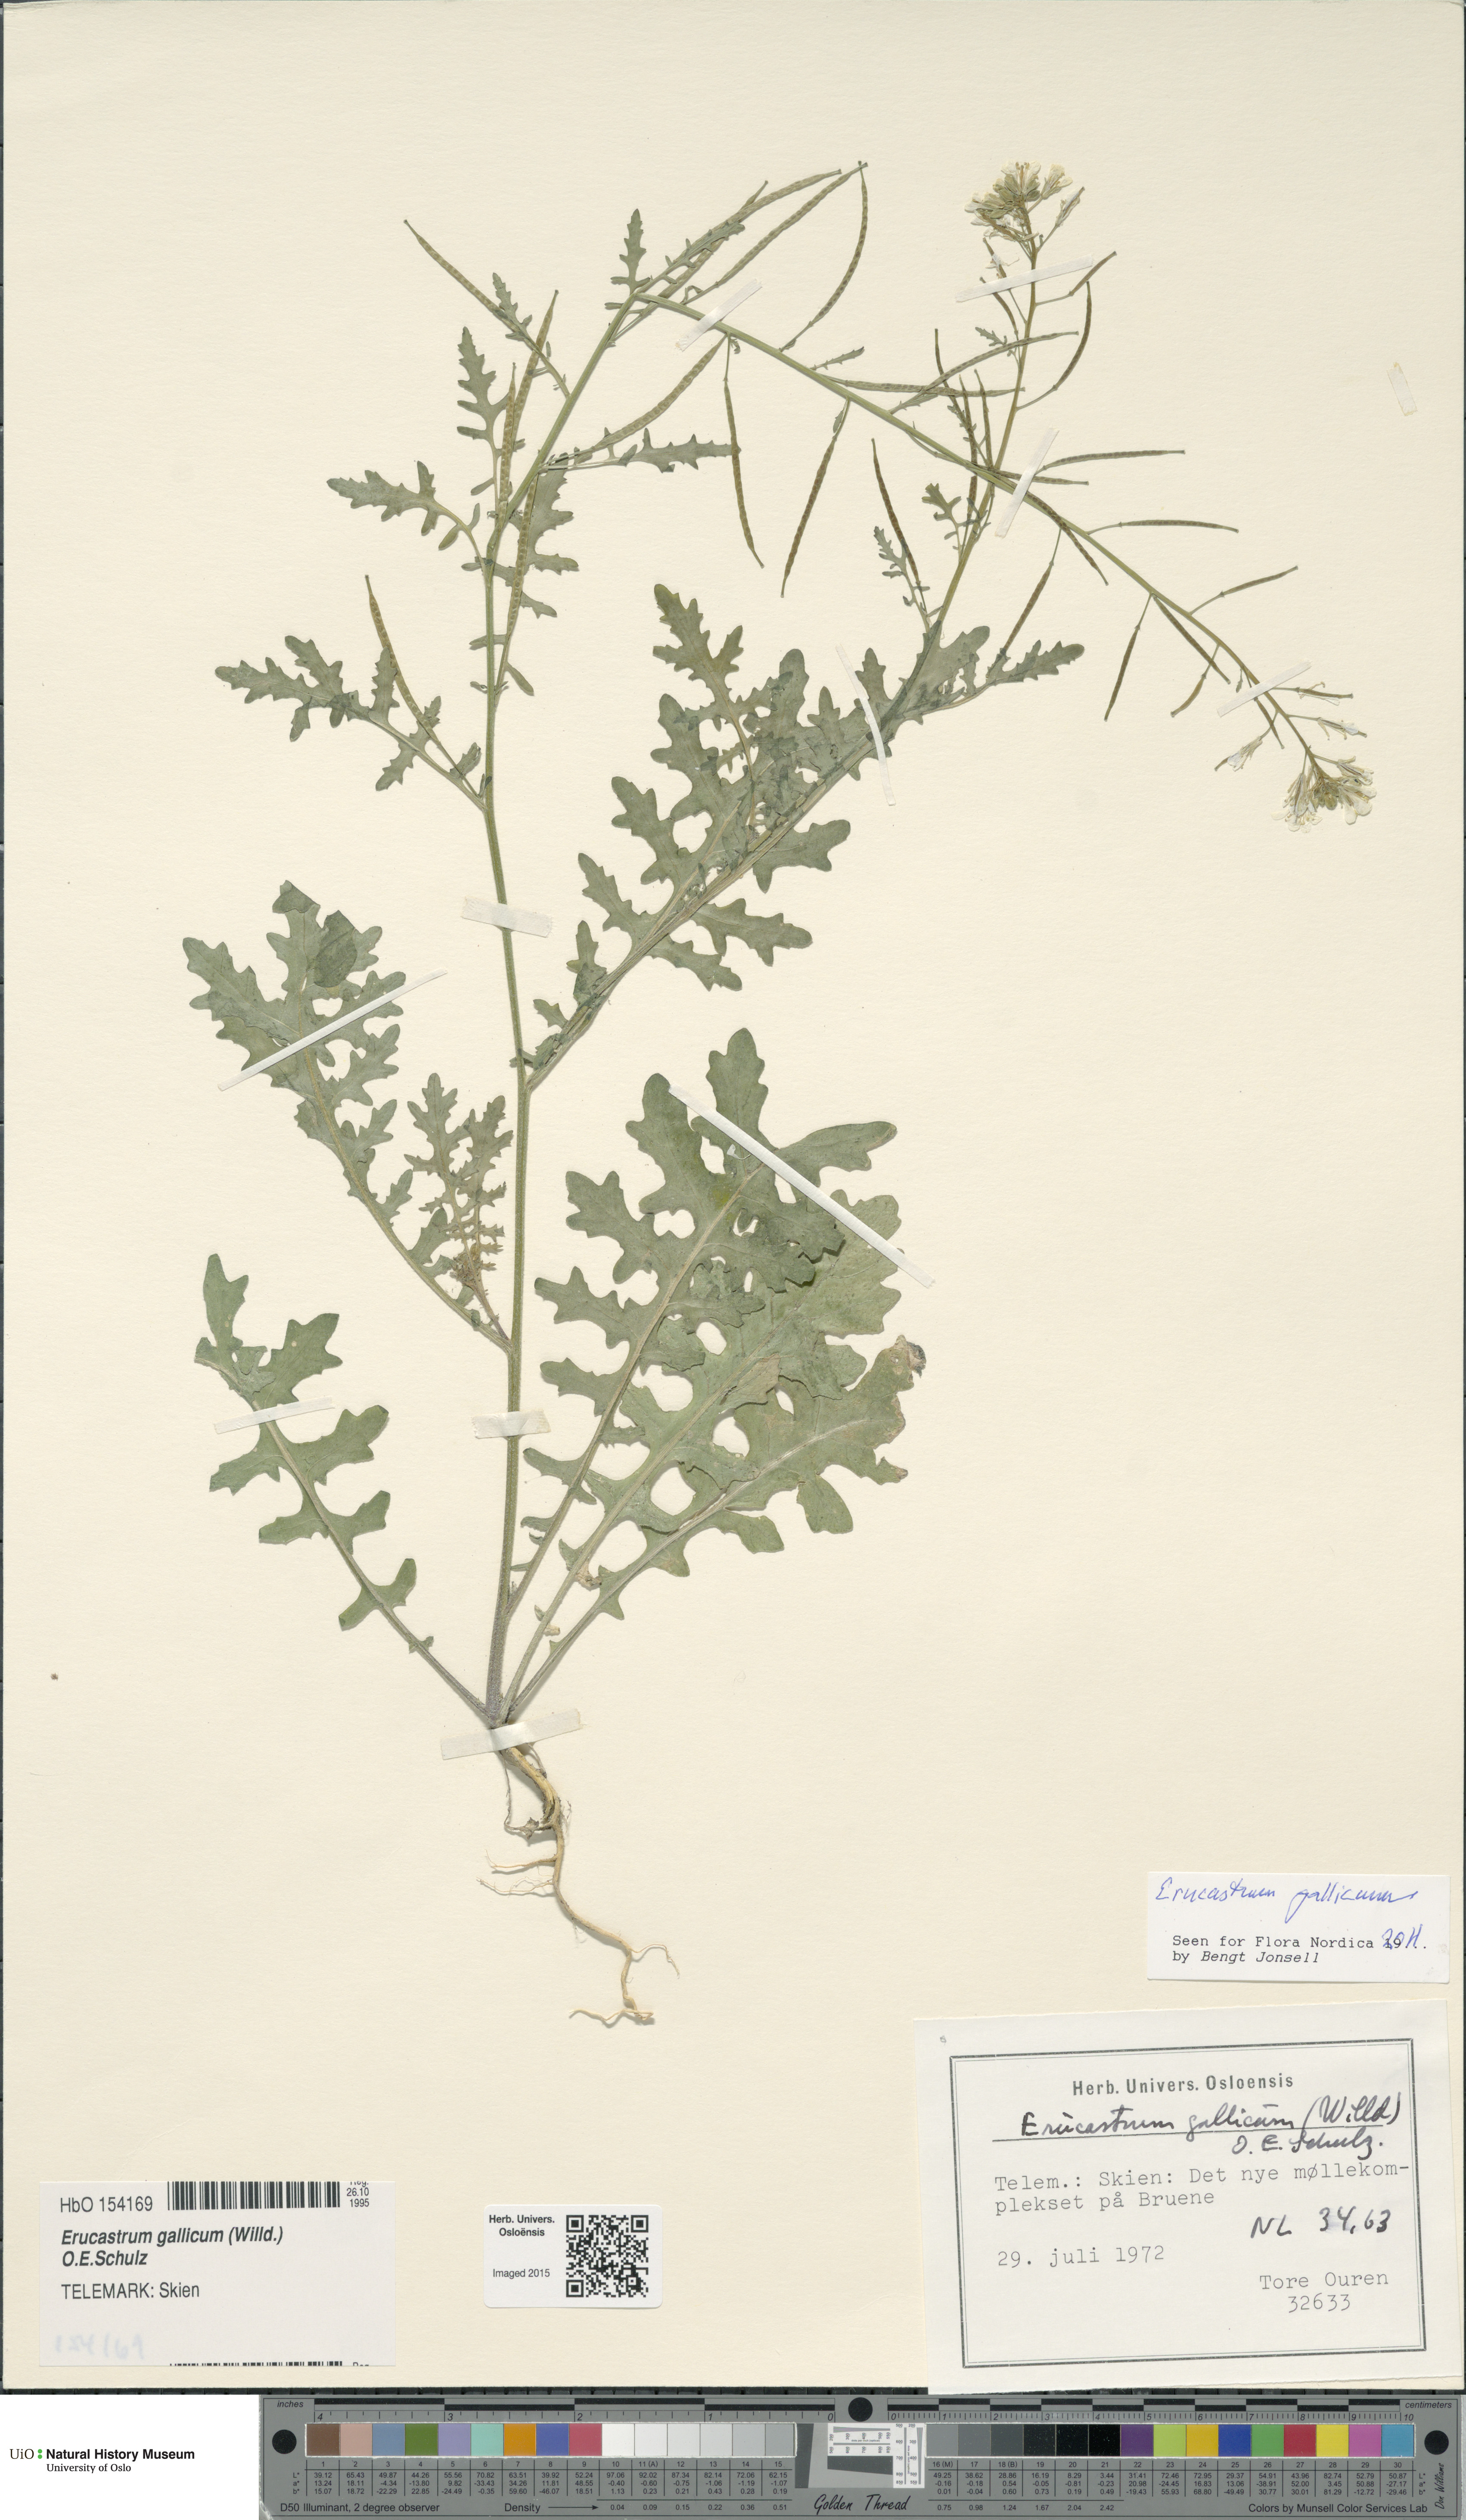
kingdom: Plantae
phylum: Tracheophyta
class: Magnoliopsida
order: Brassicales
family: Brassicaceae
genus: Erucastrum
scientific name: Erucastrum gallicum
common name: Hairy rocket
